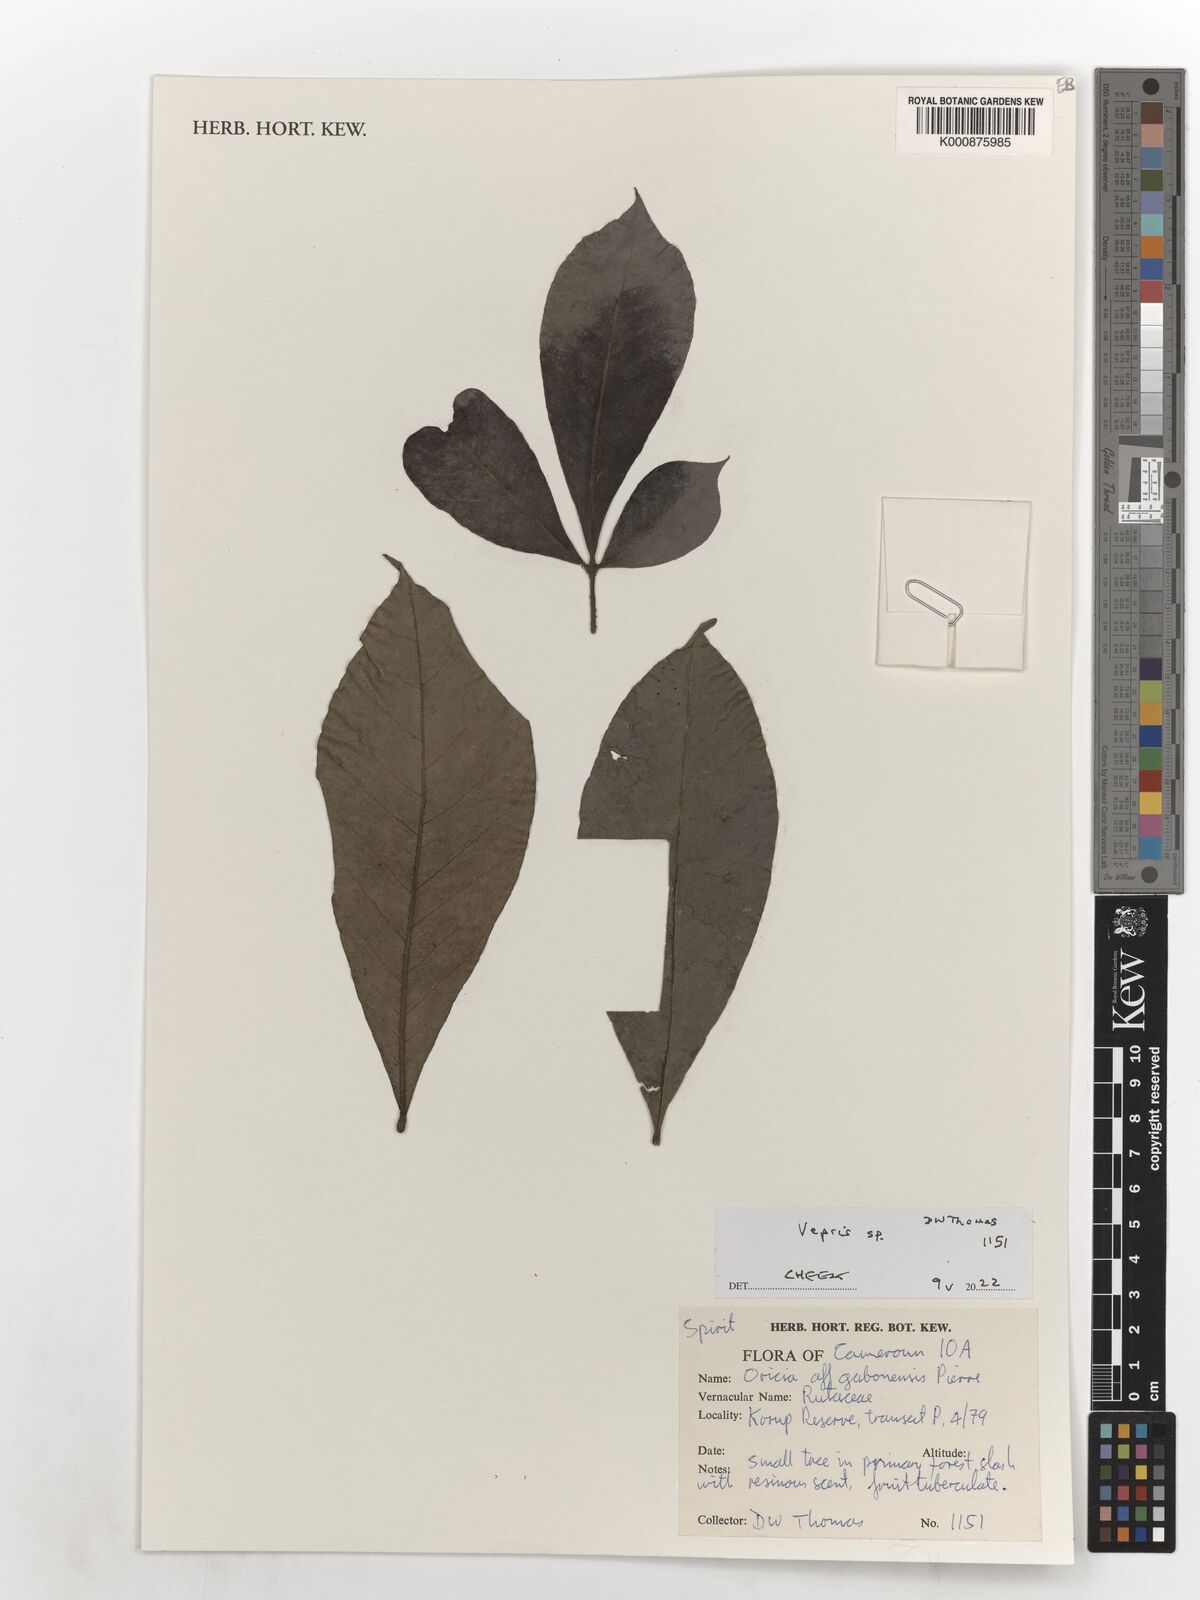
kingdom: Plantae
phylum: Tracheophyta
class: Magnoliopsida
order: Sapindales
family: Rutaceae
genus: Vepris
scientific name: Vepris
